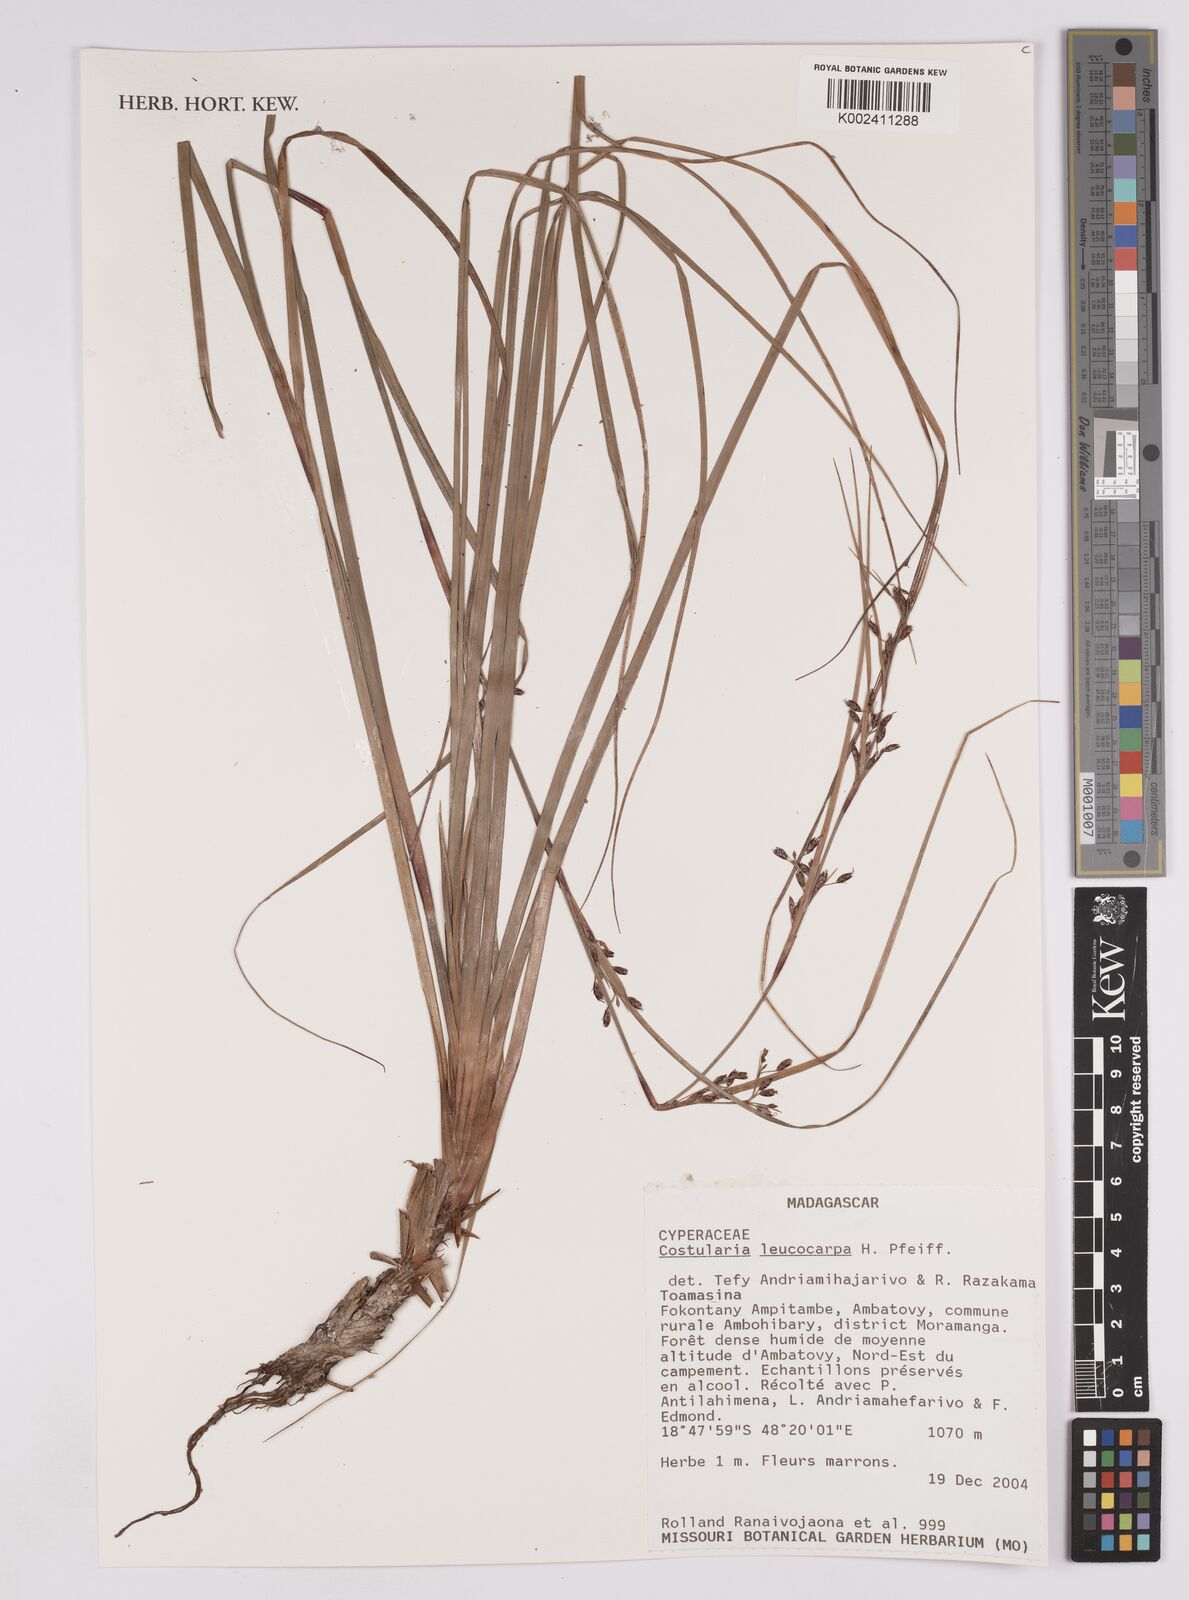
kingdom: Plantae
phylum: Tracheophyta
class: Liliopsida
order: Poales
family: Cyperaceae
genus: Costularia
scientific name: Costularia leucocarpa
